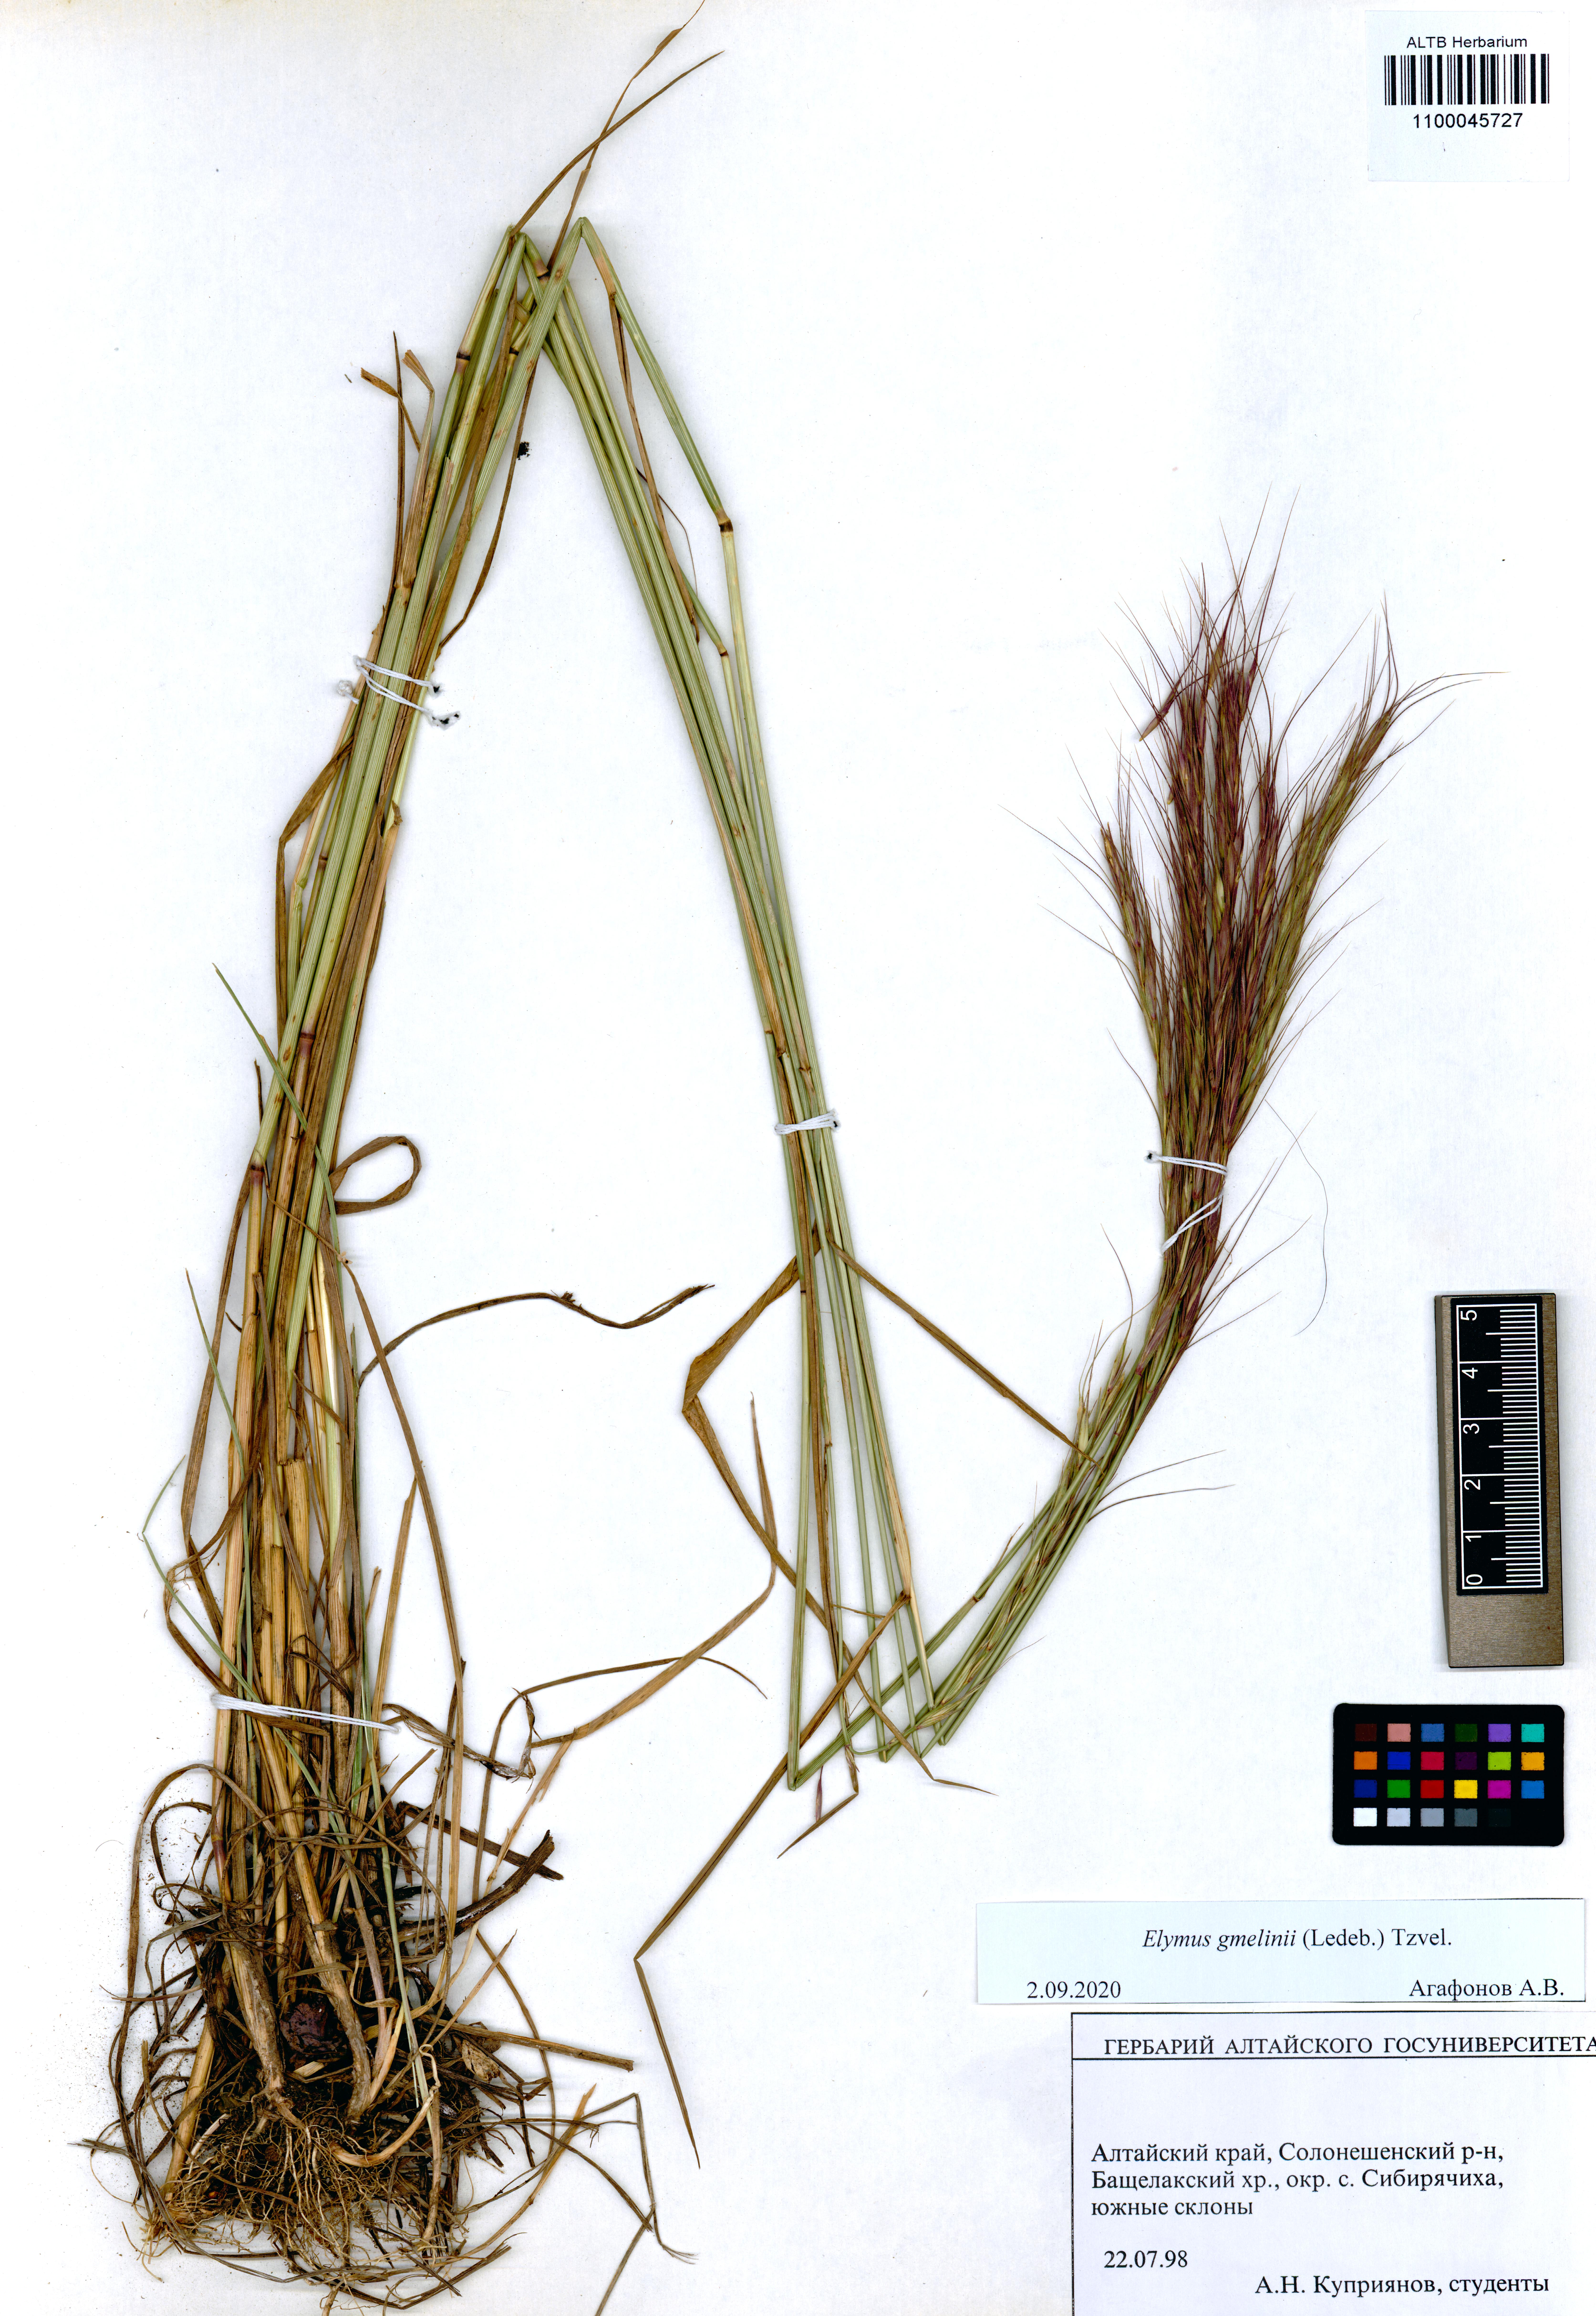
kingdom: Plantae
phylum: Tracheophyta
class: Liliopsida
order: Poales
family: Poaceae
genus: Elymus
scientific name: Elymus gmelinii
